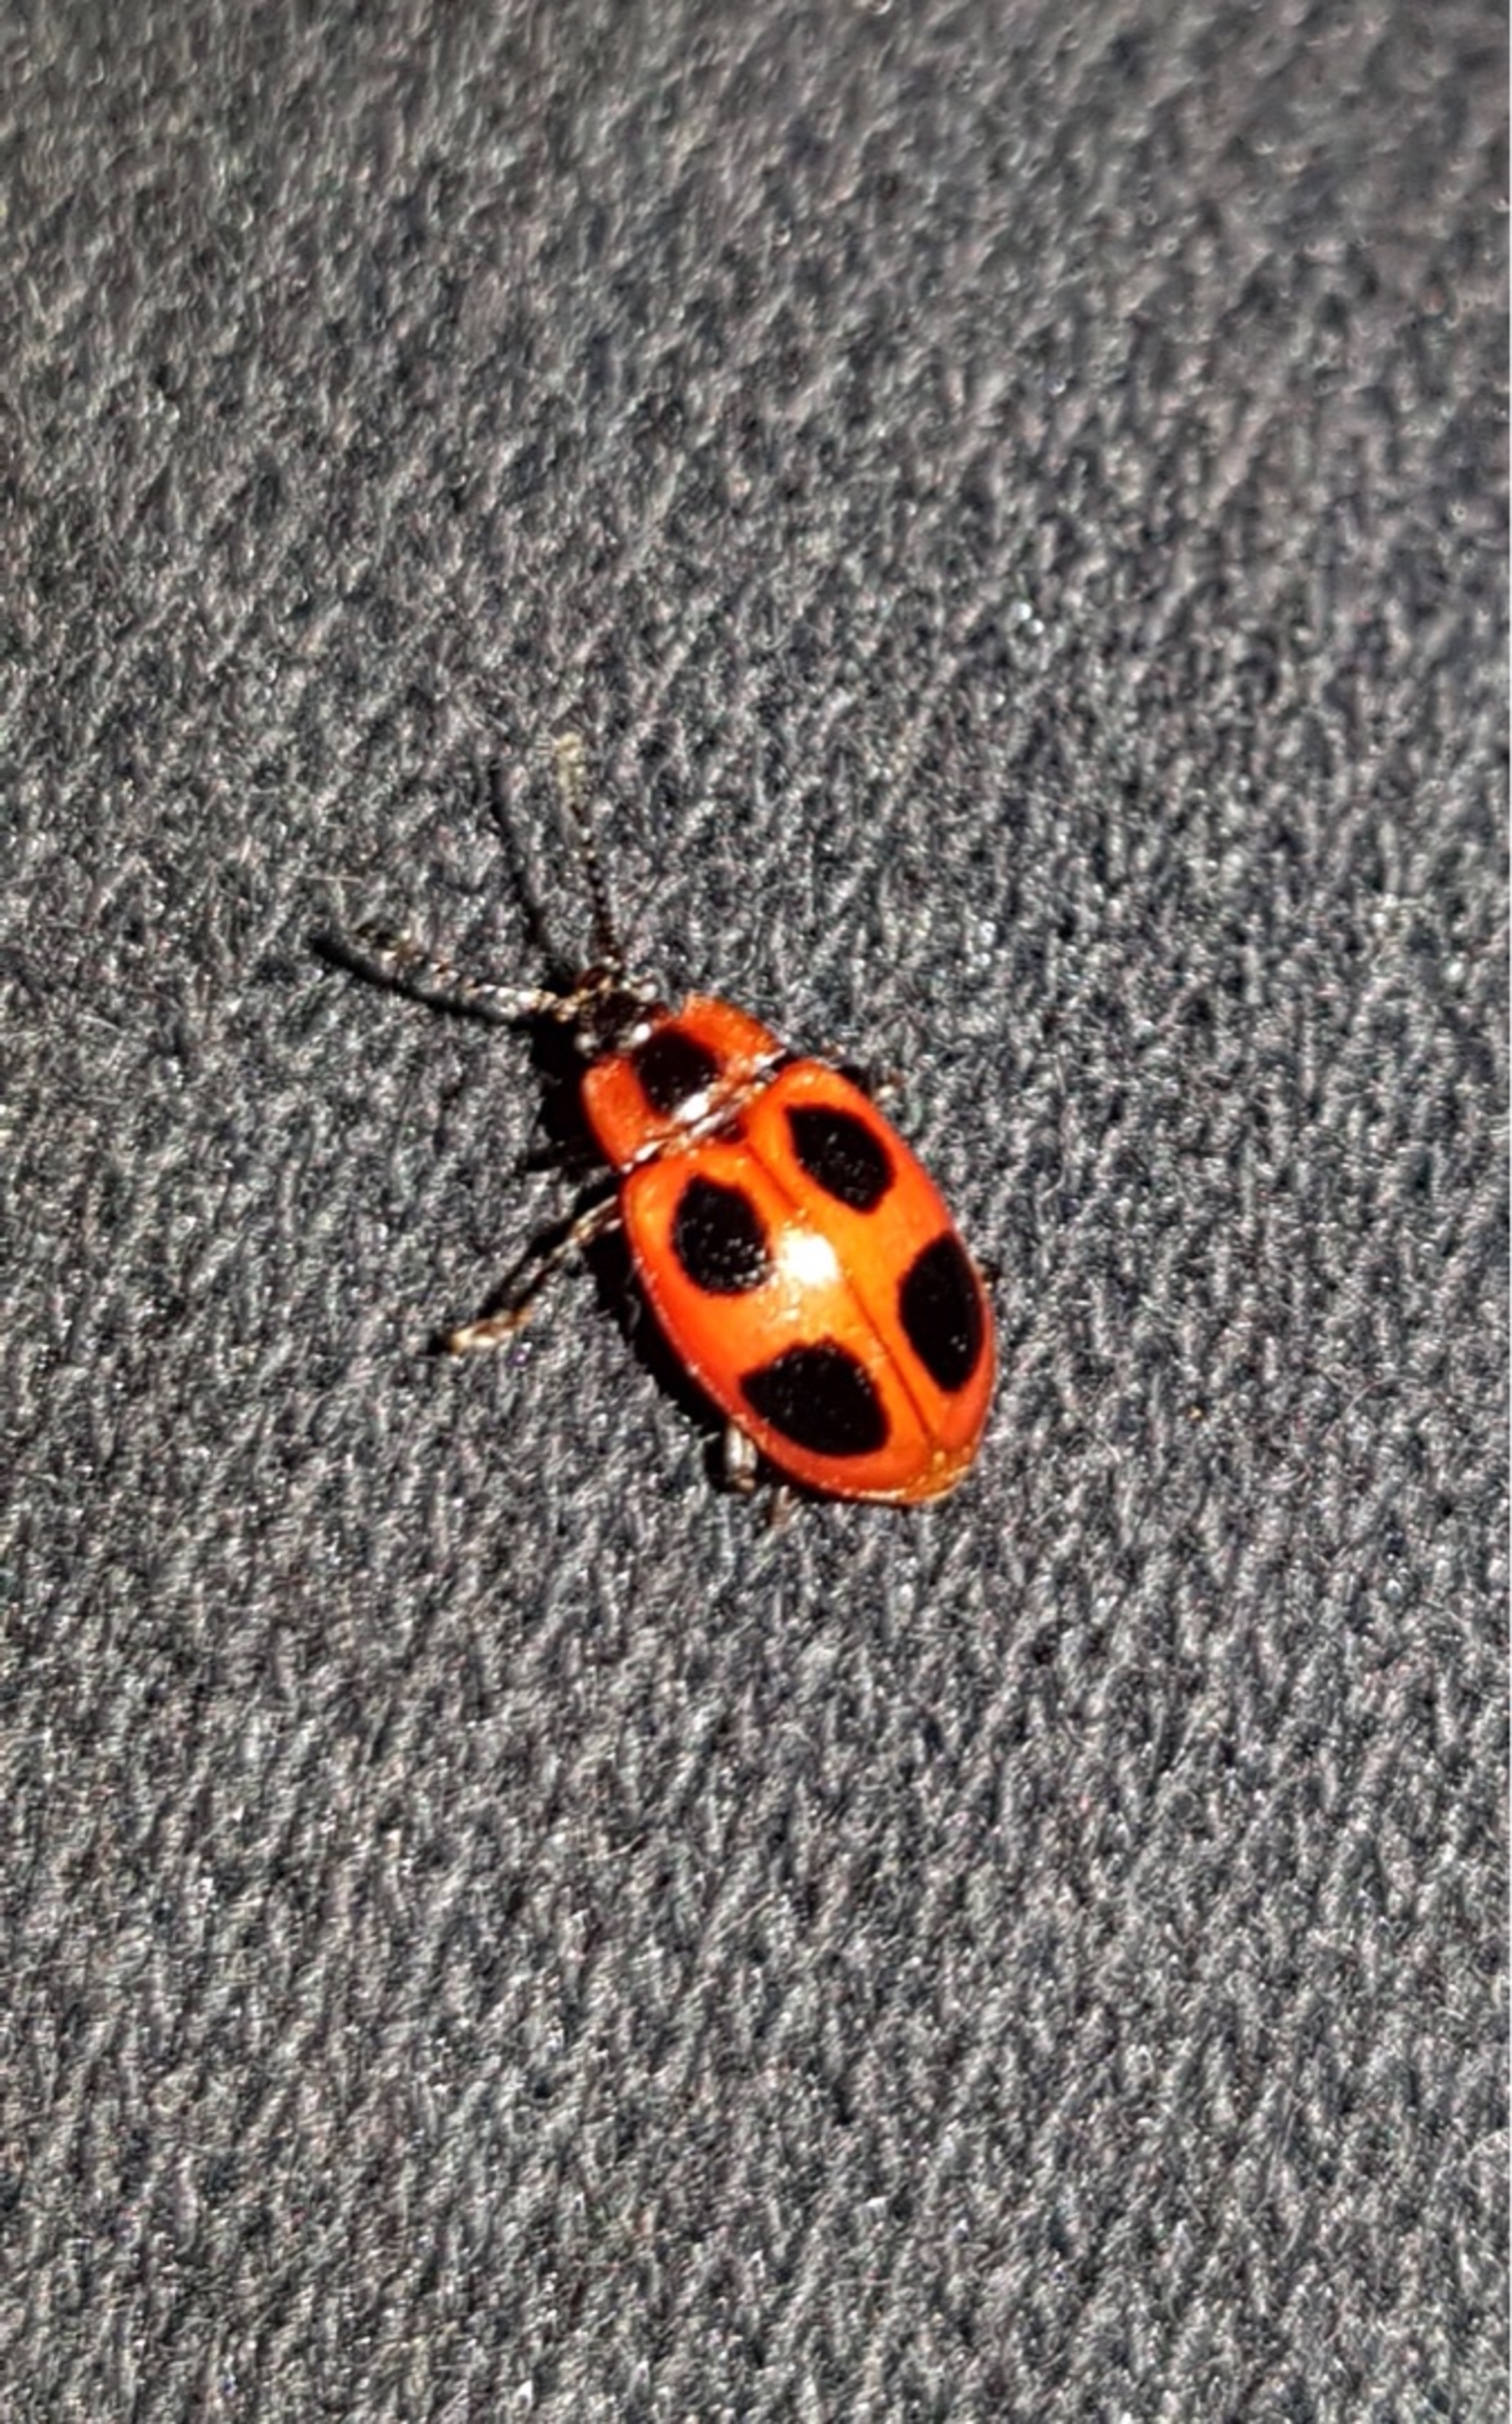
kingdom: Animalia
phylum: Arthropoda
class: Insecta
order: Coleoptera
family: Endomychidae
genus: Endomychus
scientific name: Endomychus coccineus
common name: Skarlagensvampehøne
